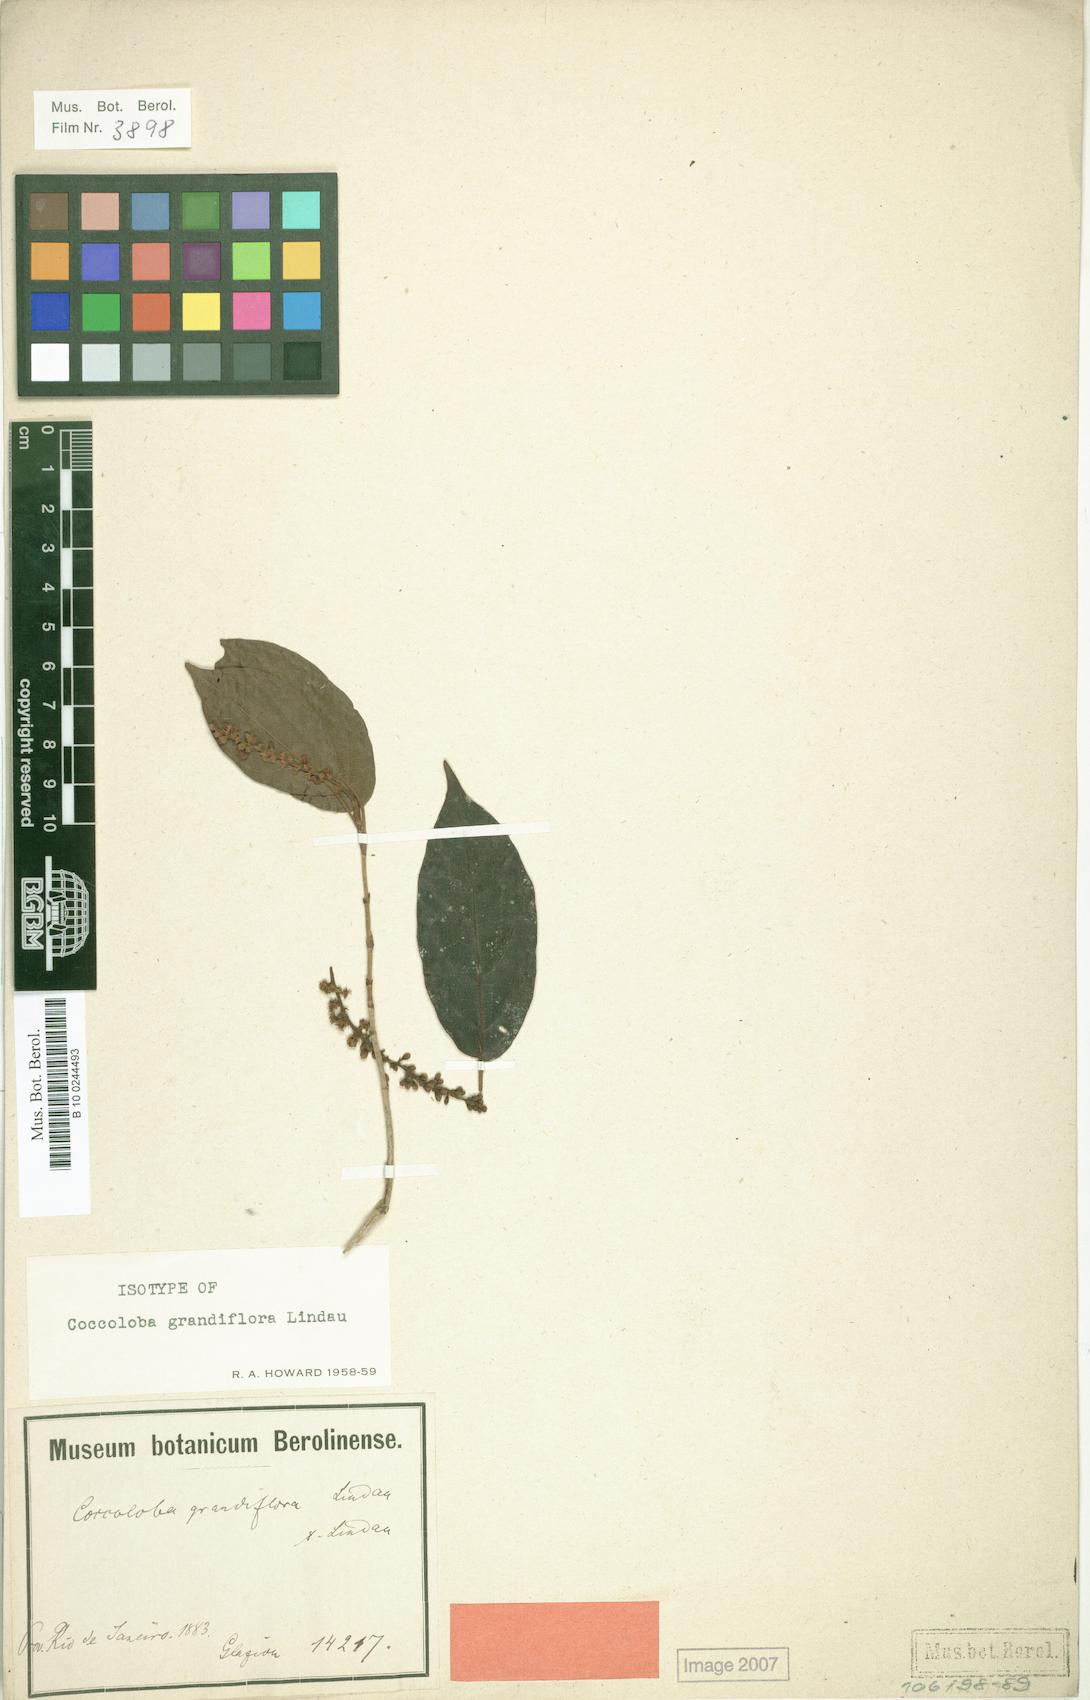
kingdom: Plantae
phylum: Tracheophyta
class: Magnoliopsida
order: Caryophyllales
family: Polygonaceae
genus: Coccoloba
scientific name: Coccoloba pubescens
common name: Mountain-grape
